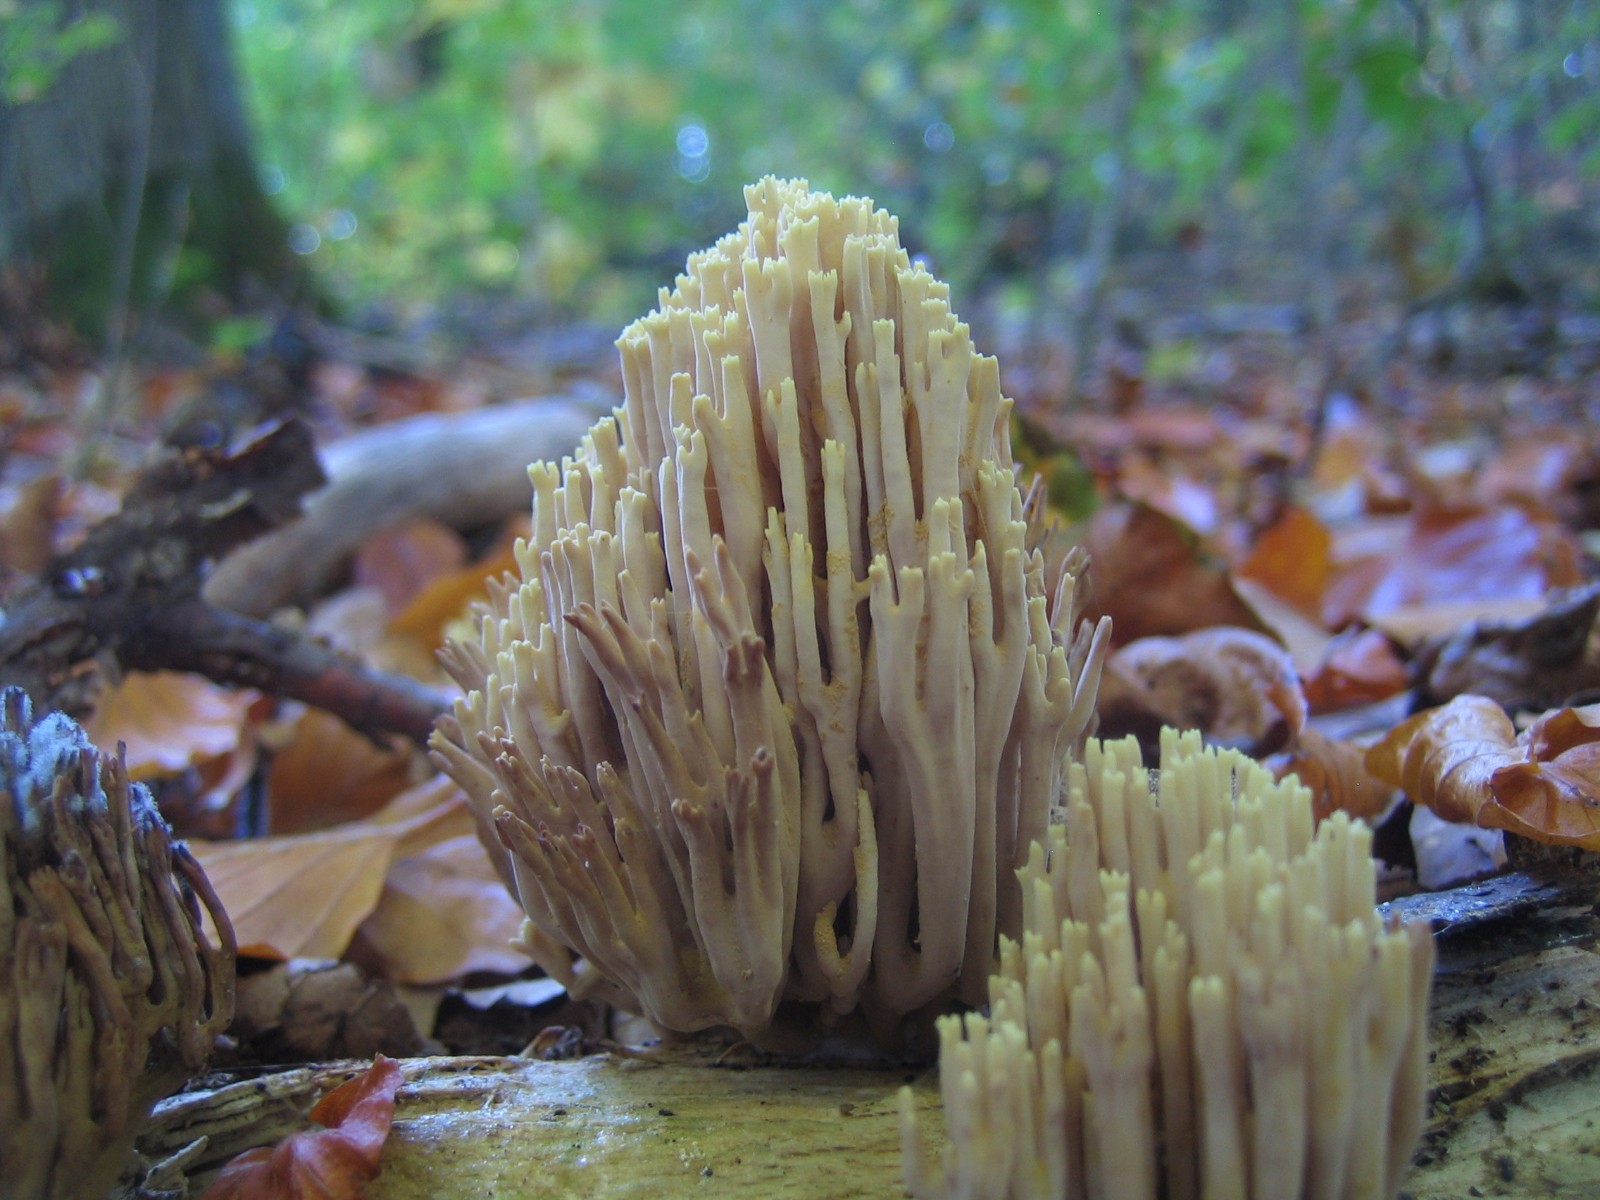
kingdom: Fungi
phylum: Basidiomycota
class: Agaricomycetes
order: Gomphales
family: Gomphaceae
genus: Ramaria
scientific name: Ramaria stricta
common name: rank koralsvamp
